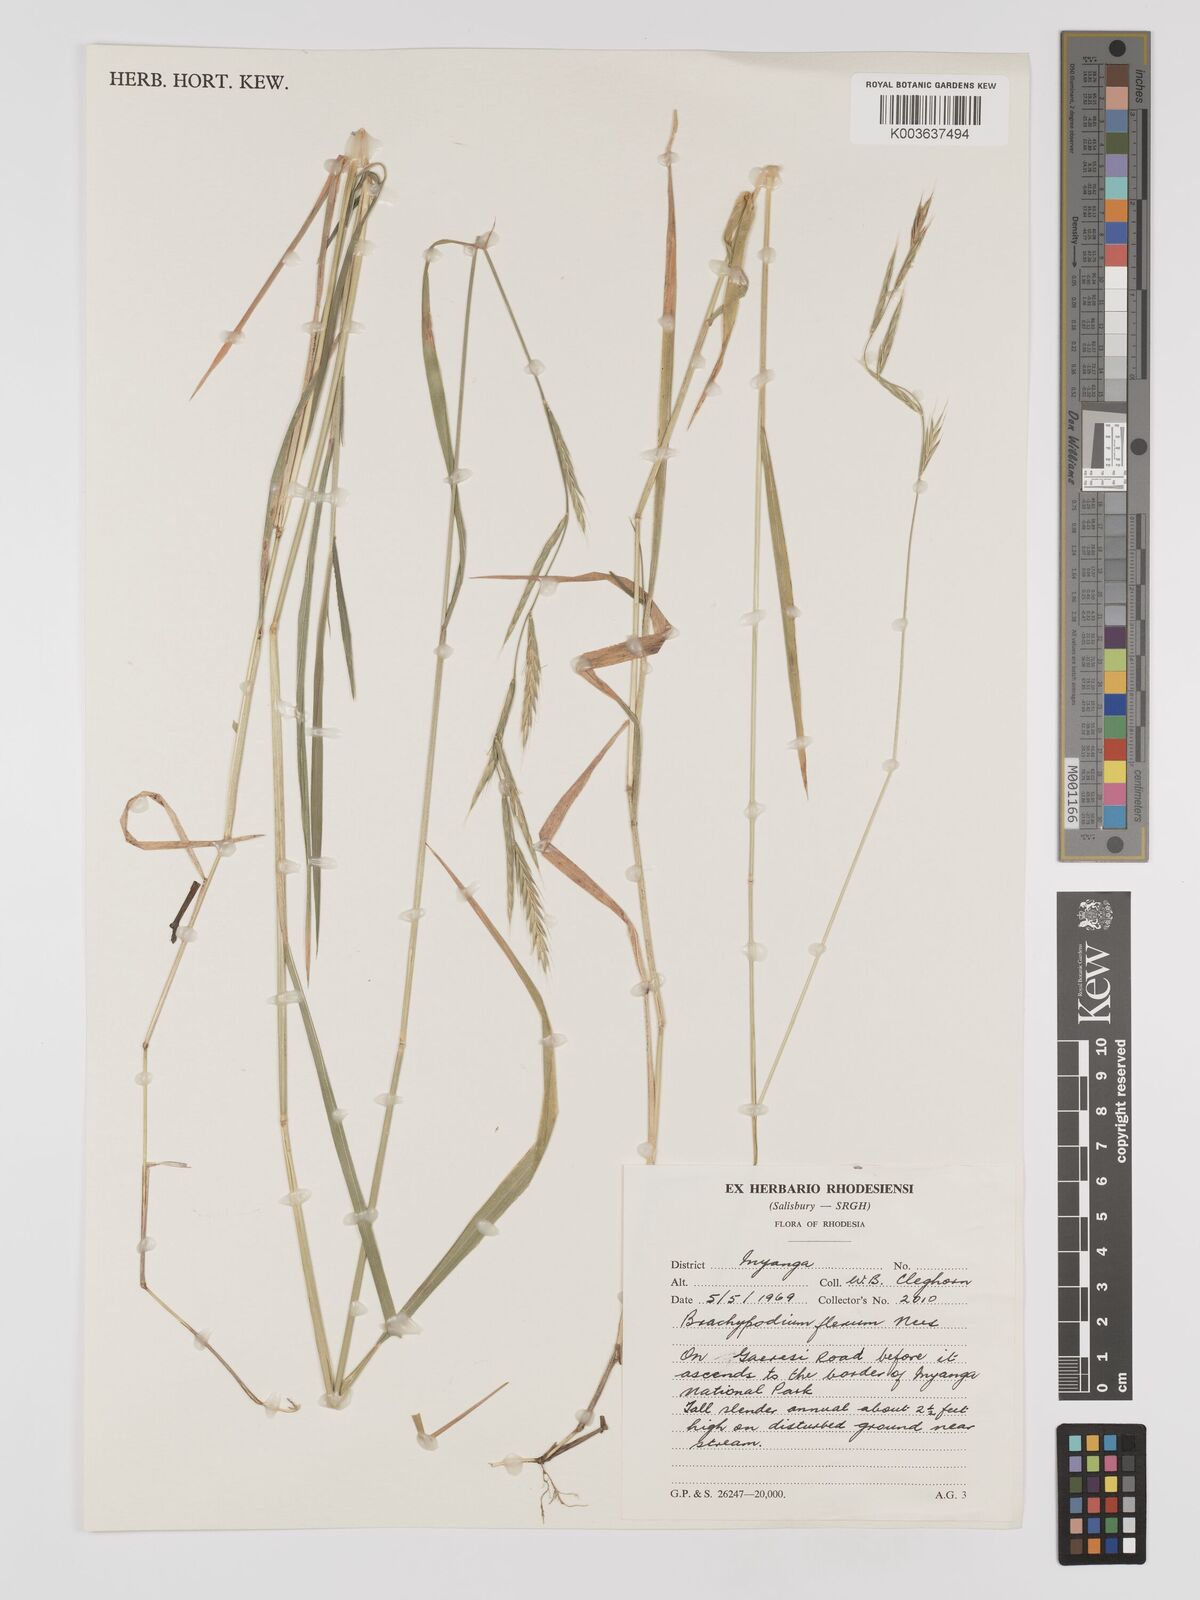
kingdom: Plantae
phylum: Tracheophyta
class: Liliopsida
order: Poales
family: Poaceae
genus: Brachypodium
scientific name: Brachypodium flexum
